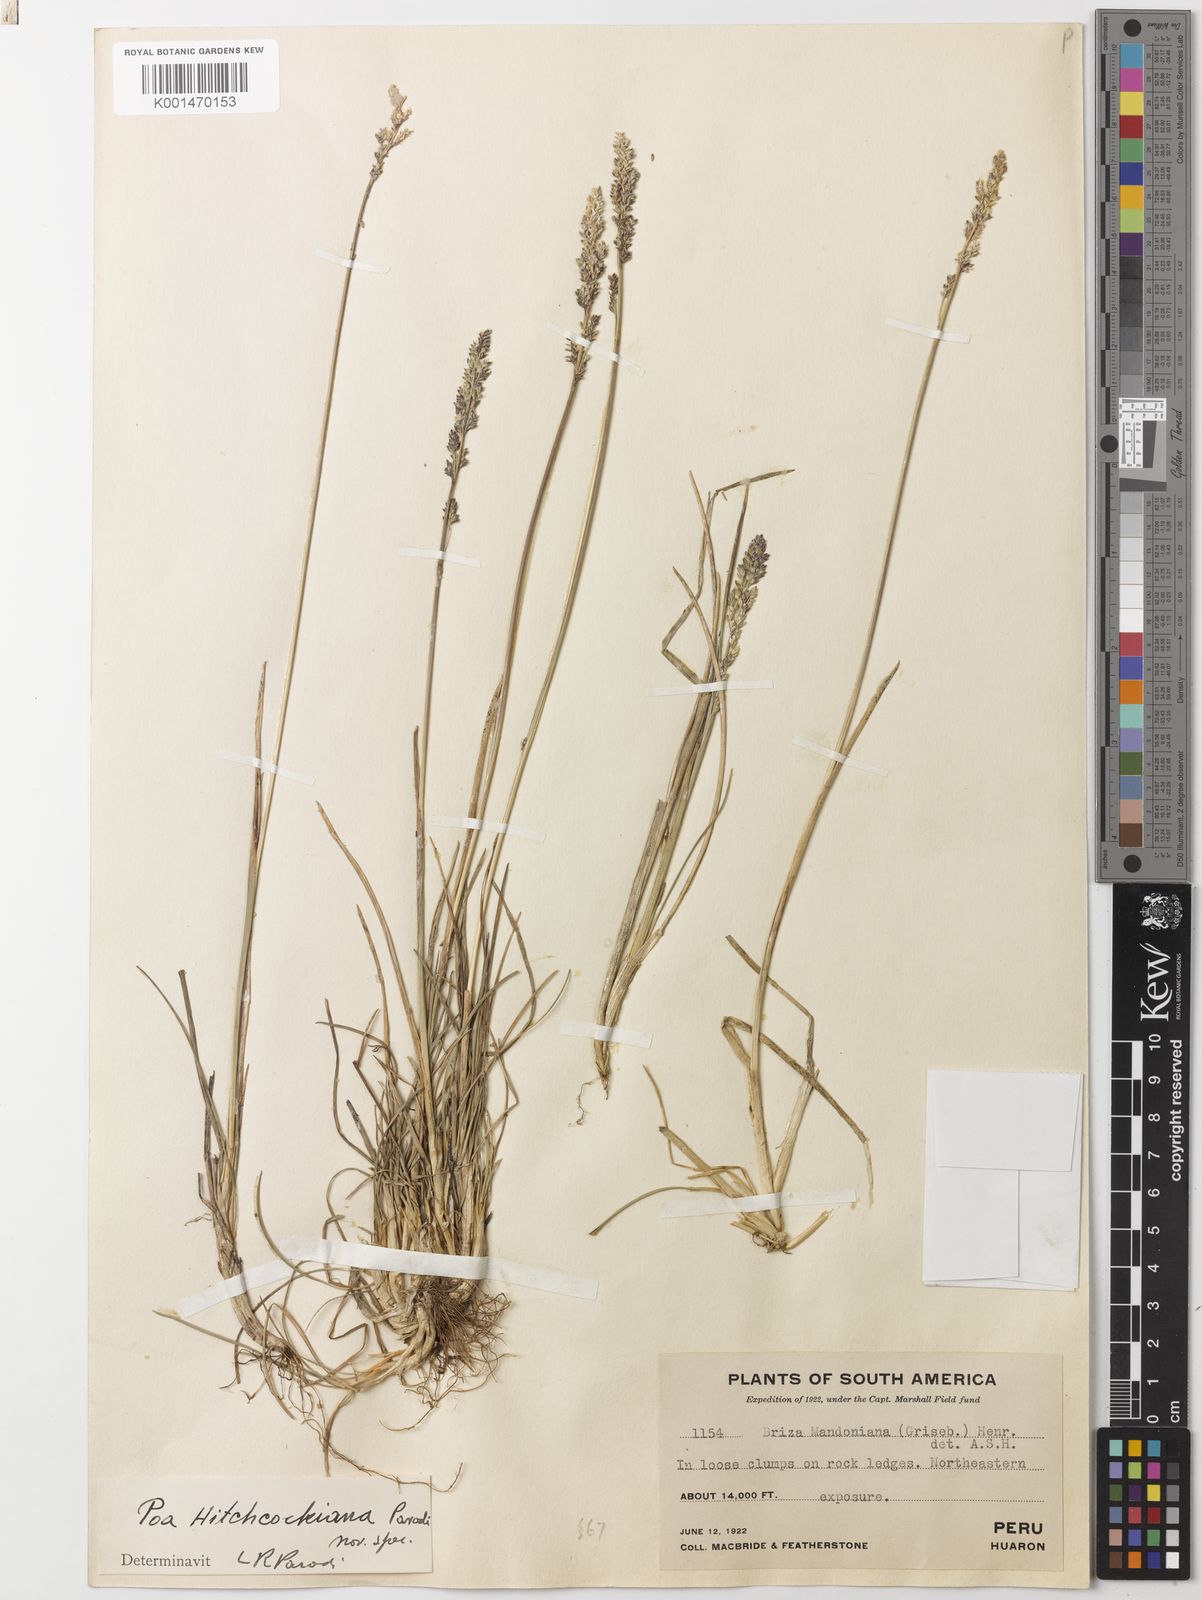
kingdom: Plantae
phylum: Tracheophyta
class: Liliopsida
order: Poales
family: Poaceae
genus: Poa
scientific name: Poa hitchcockiana
